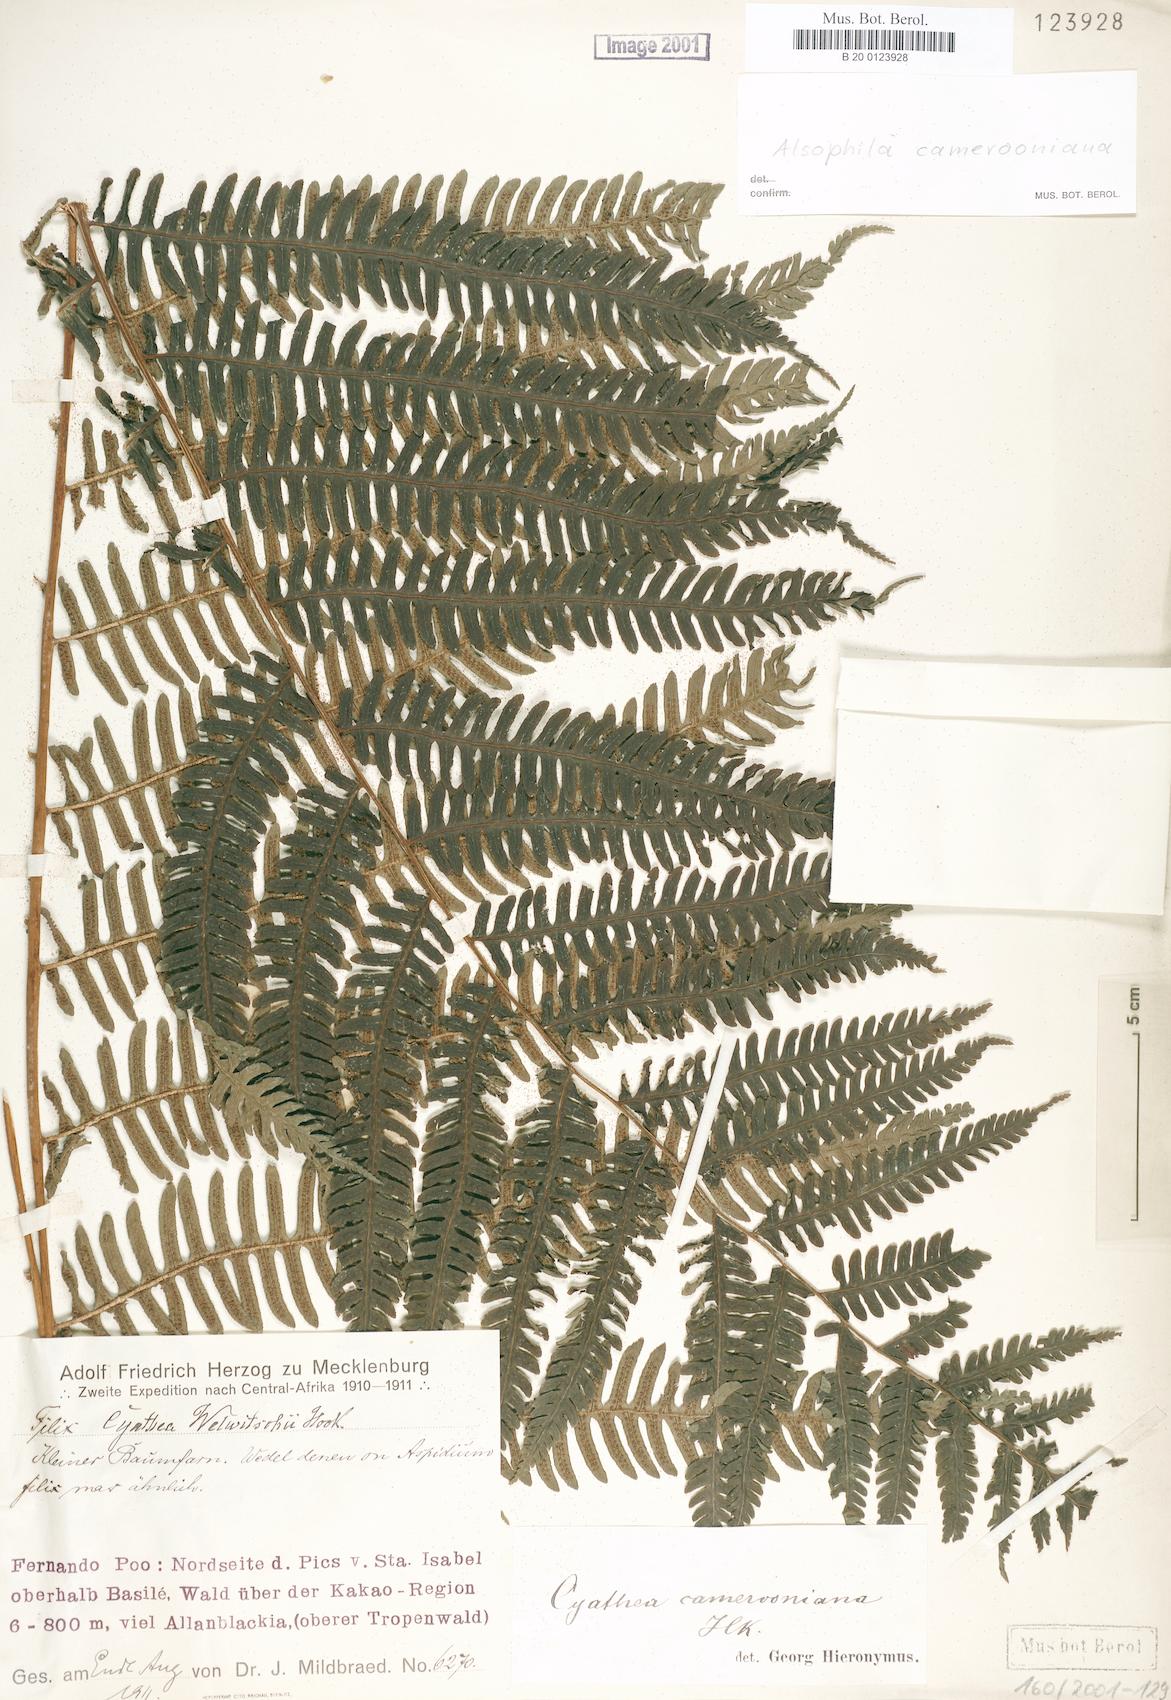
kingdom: Plantae
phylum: Tracheophyta
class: Polypodiopsida
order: Cyatheales
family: Cyatheaceae
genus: Alsophila
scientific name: Alsophila camerooniana
